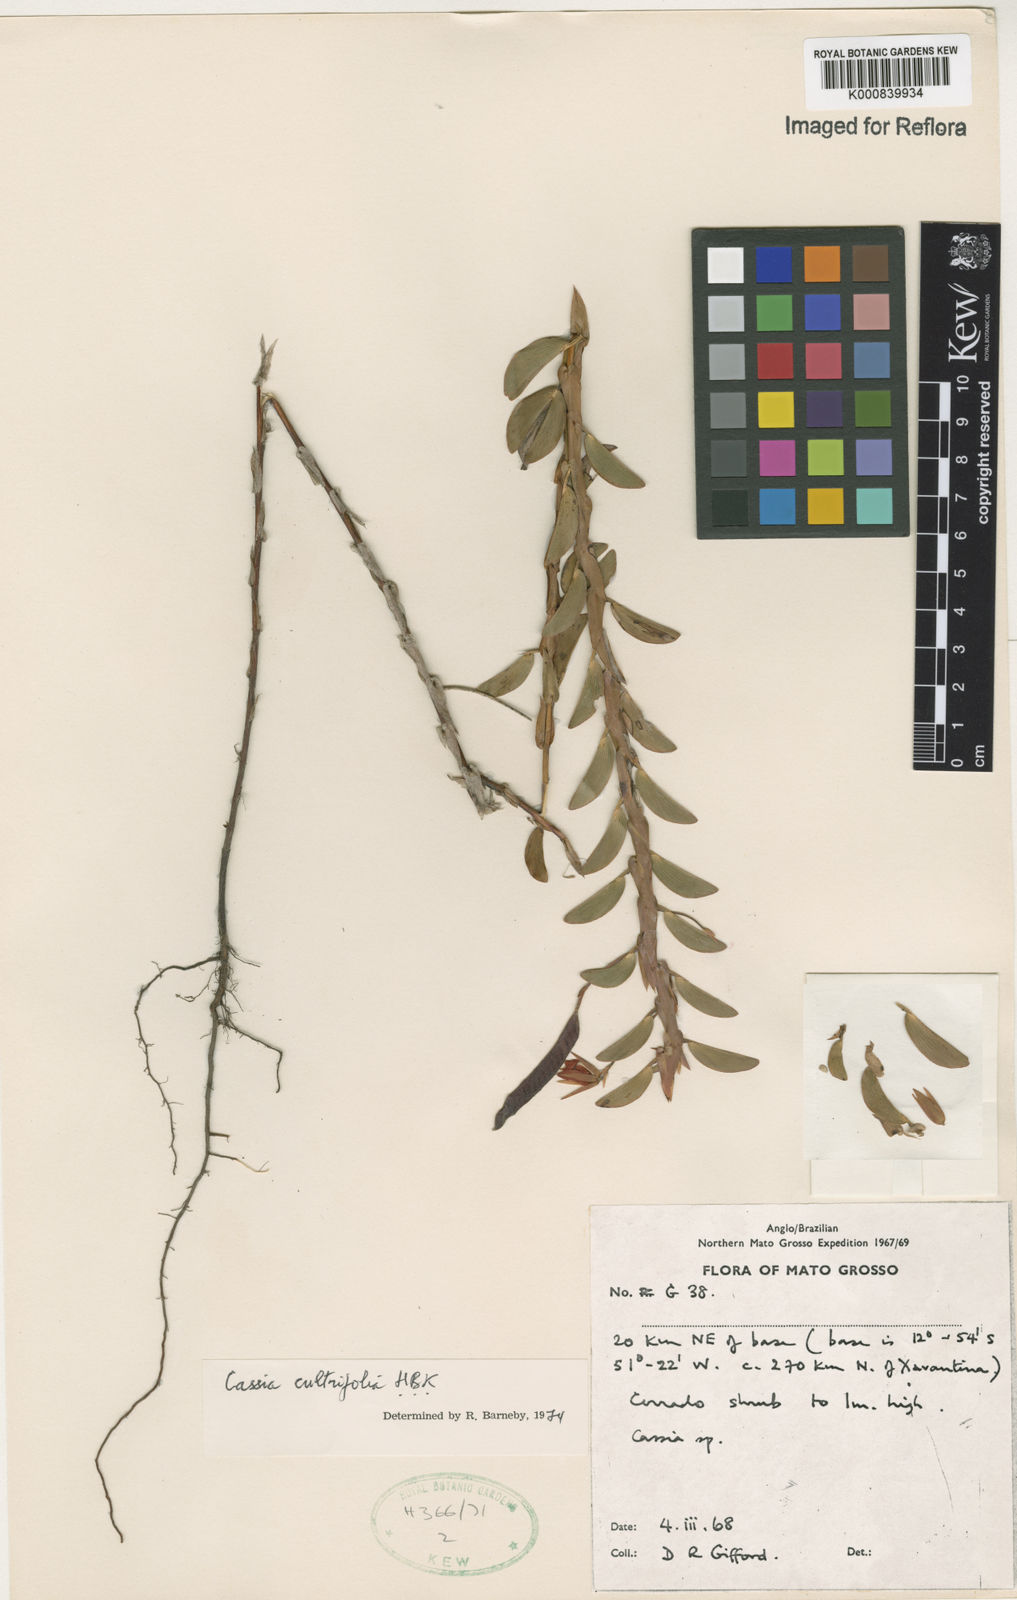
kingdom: Plantae
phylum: Tracheophyta
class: Magnoliopsida
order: Fabales
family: Fabaceae
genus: Chamaecrista
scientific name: Chamaecrista diphylla
